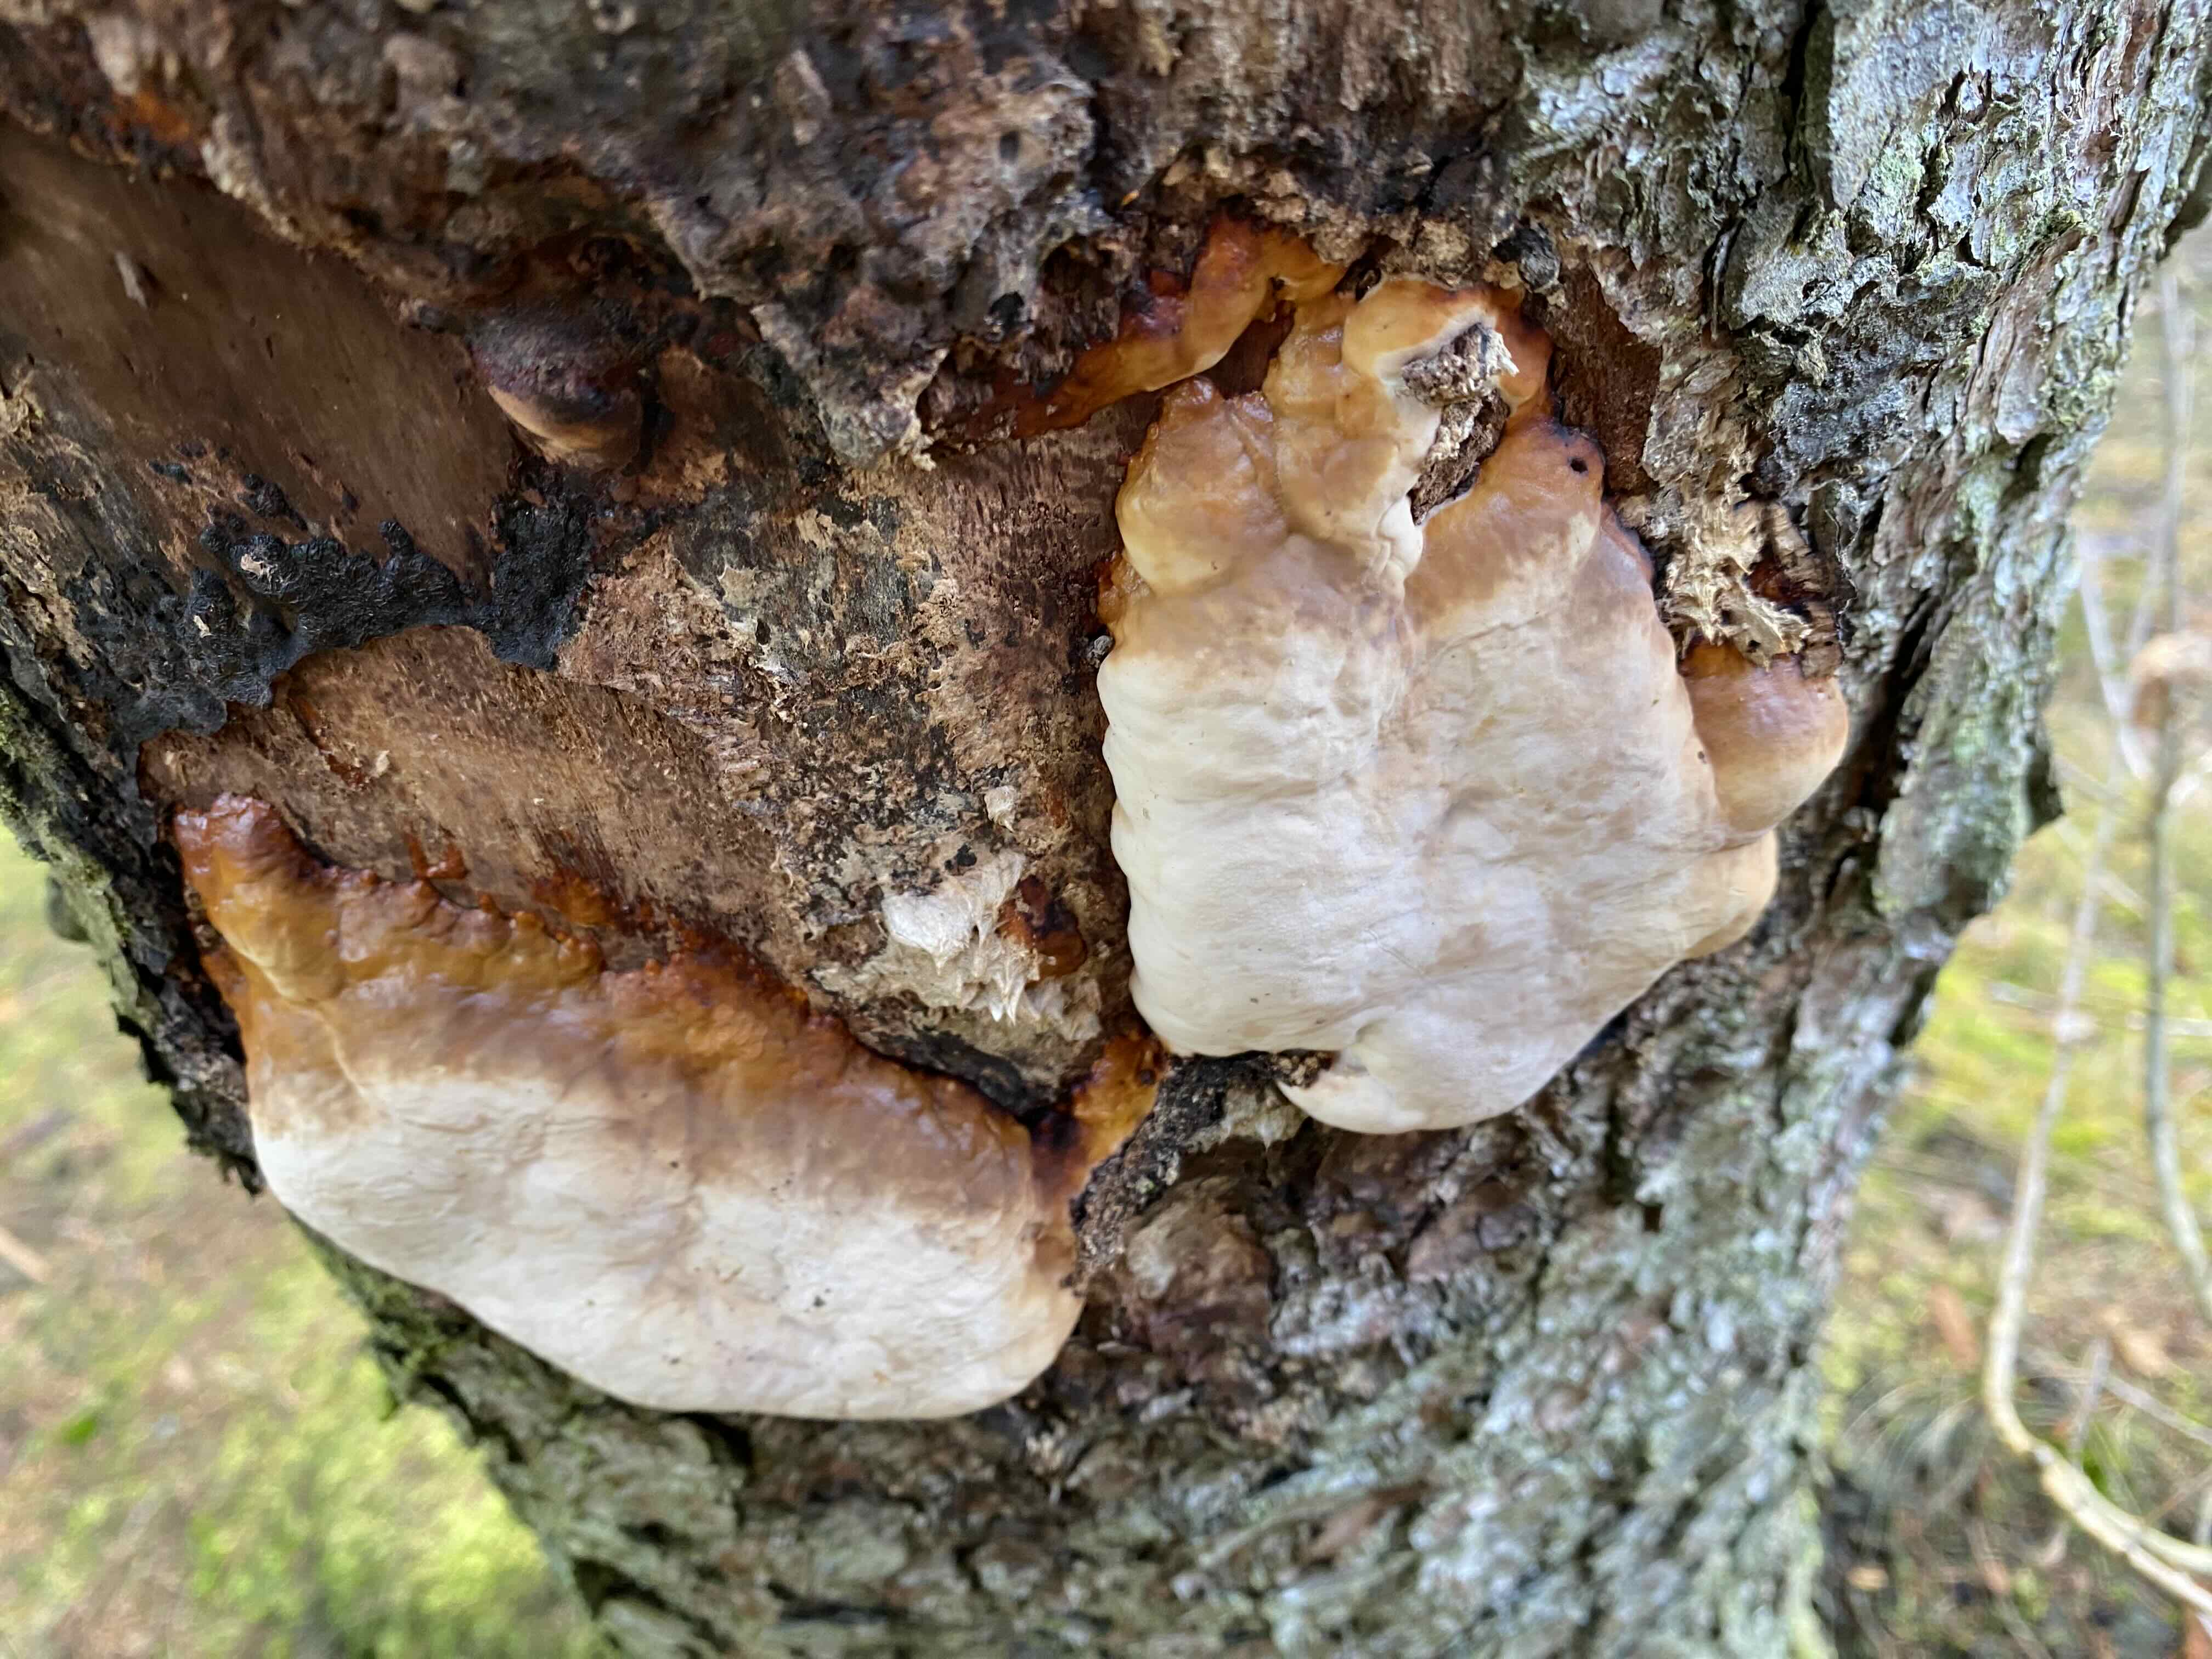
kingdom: Fungi
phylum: Basidiomycota
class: Agaricomycetes
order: Polyporales
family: Fomitopsidaceae
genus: Fomitopsis
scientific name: Fomitopsis pinicola
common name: randbæltet hovporesvamp
